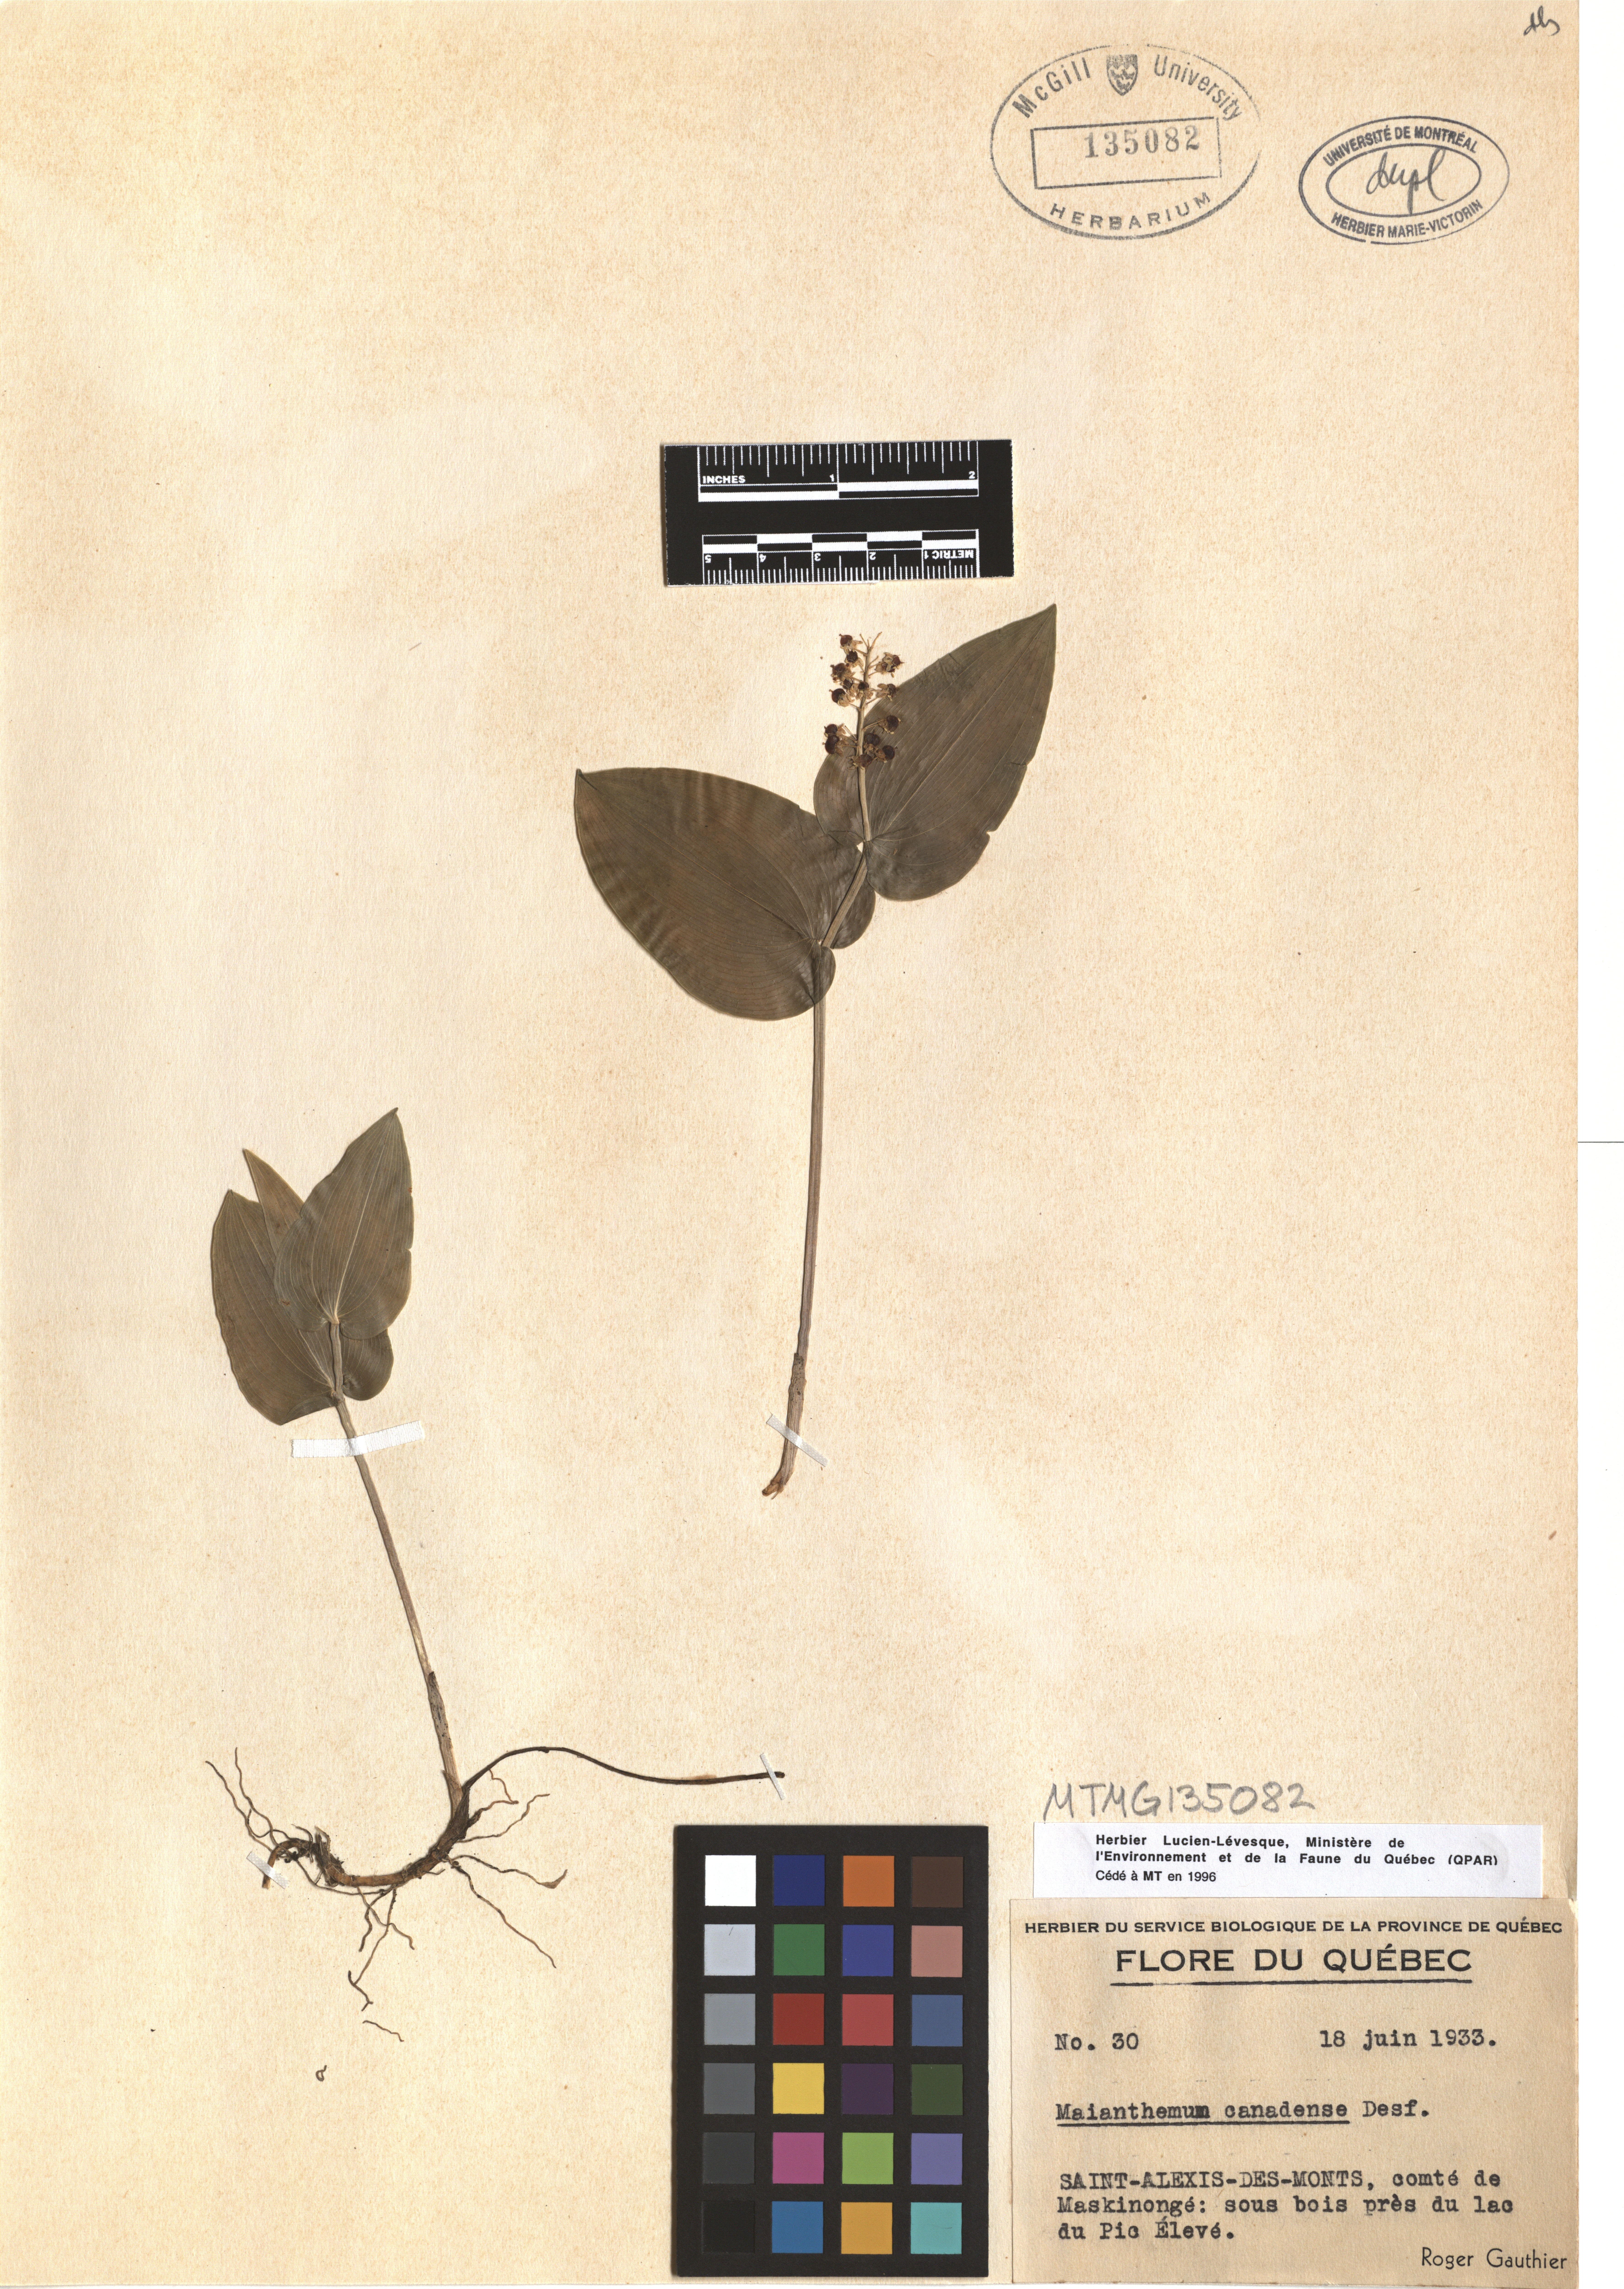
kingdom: Plantae
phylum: Tracheophyta
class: Liliopsida
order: Asparagales
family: Asparagaceae
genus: Maianthemum
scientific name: Maianthemum canadense
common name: False lily-of-the-valley
